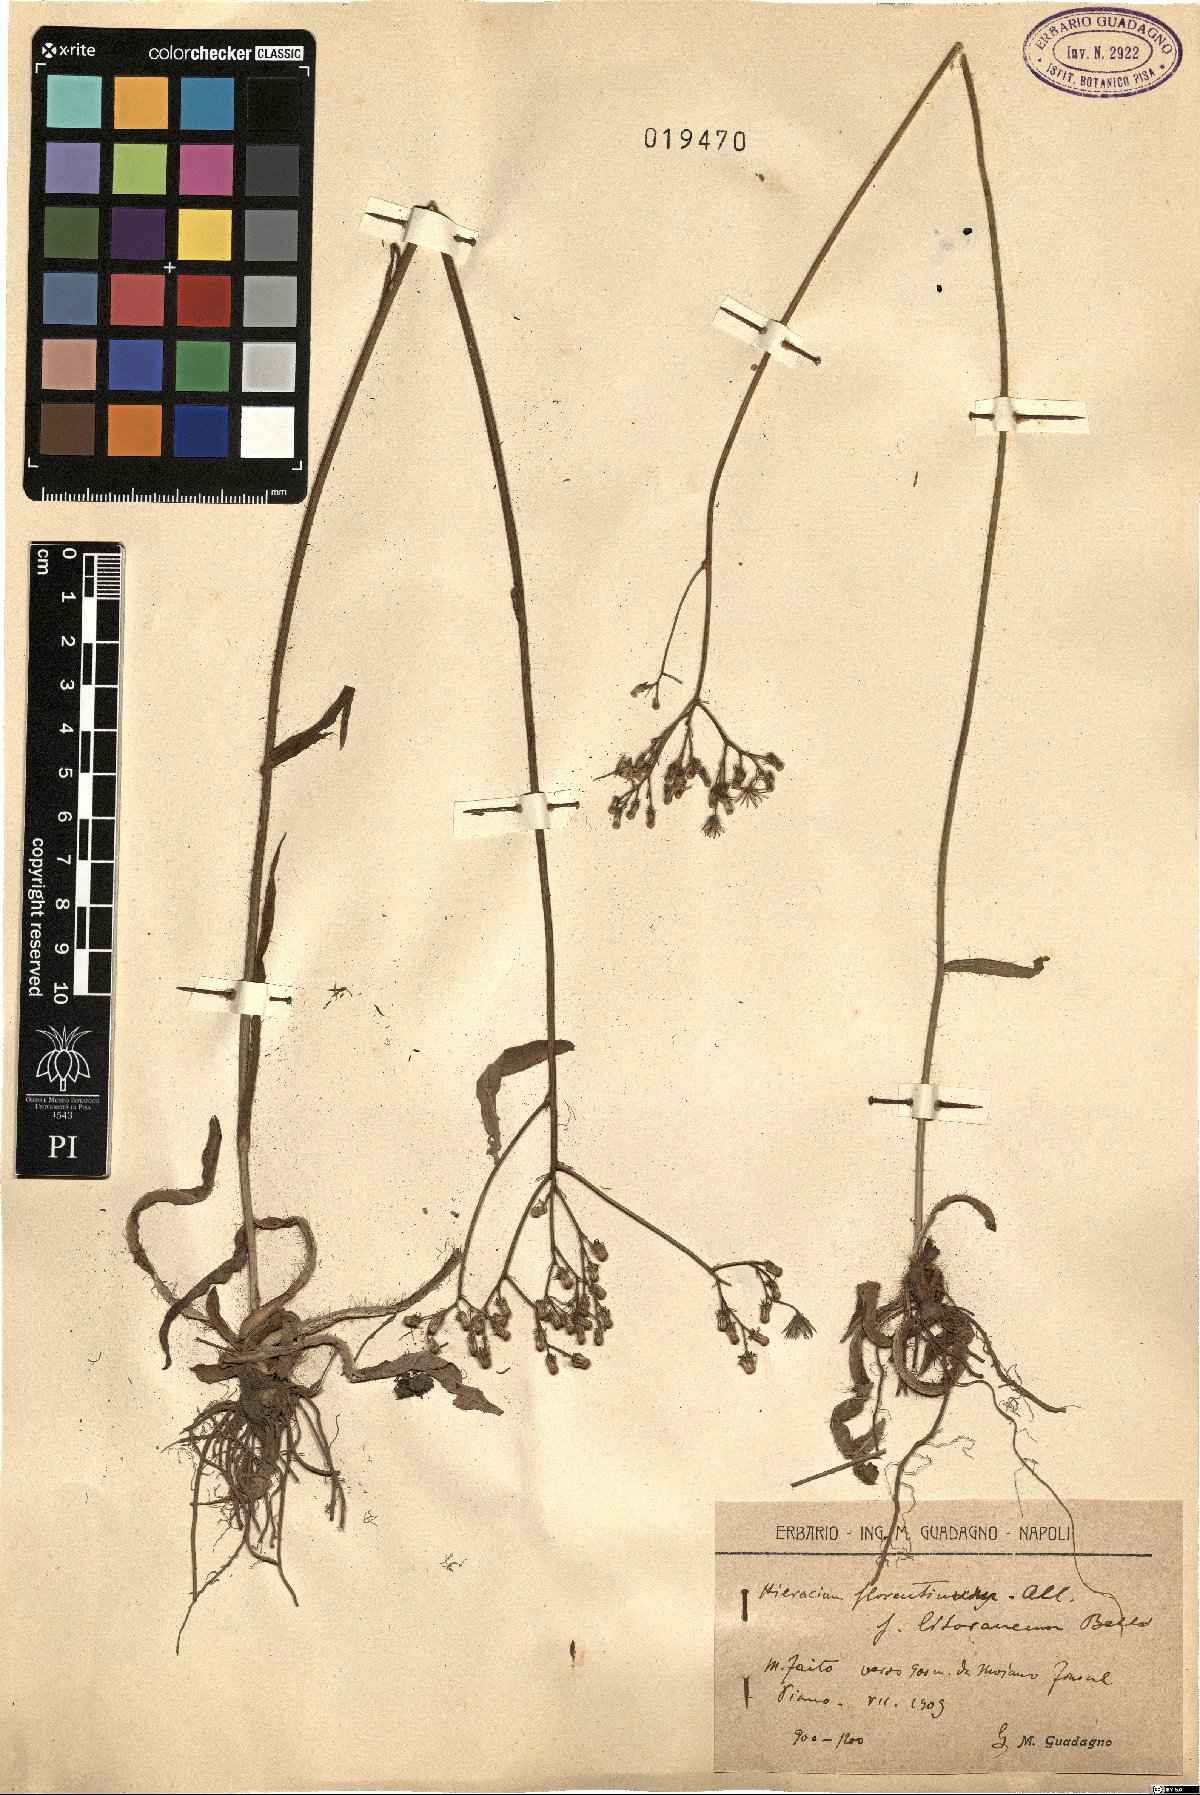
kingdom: Plantae
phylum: Tracheophyta
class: Magnoliopsida
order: Asterales
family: Asteraceae
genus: Hieracium
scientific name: Hieracium florentinum
